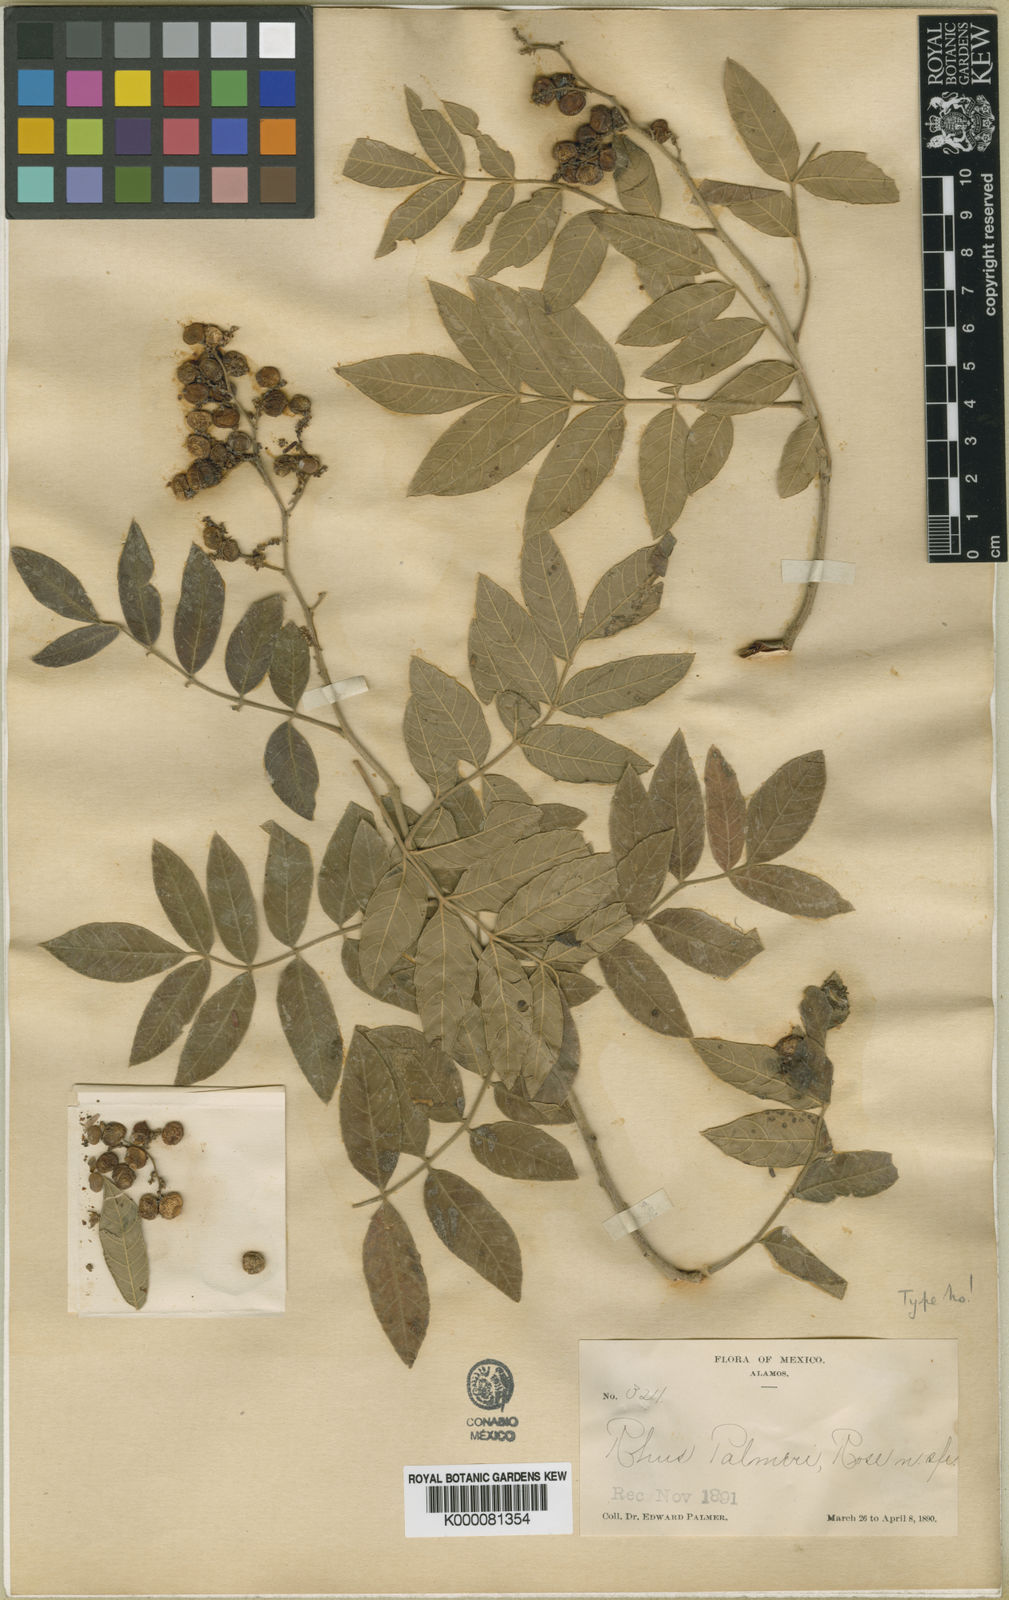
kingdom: Plantae
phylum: Tracheophyta
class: Magnoliopsida
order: Sapindales
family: Anacardiaceae
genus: Rhus
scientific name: Rhus terebinthifolia
